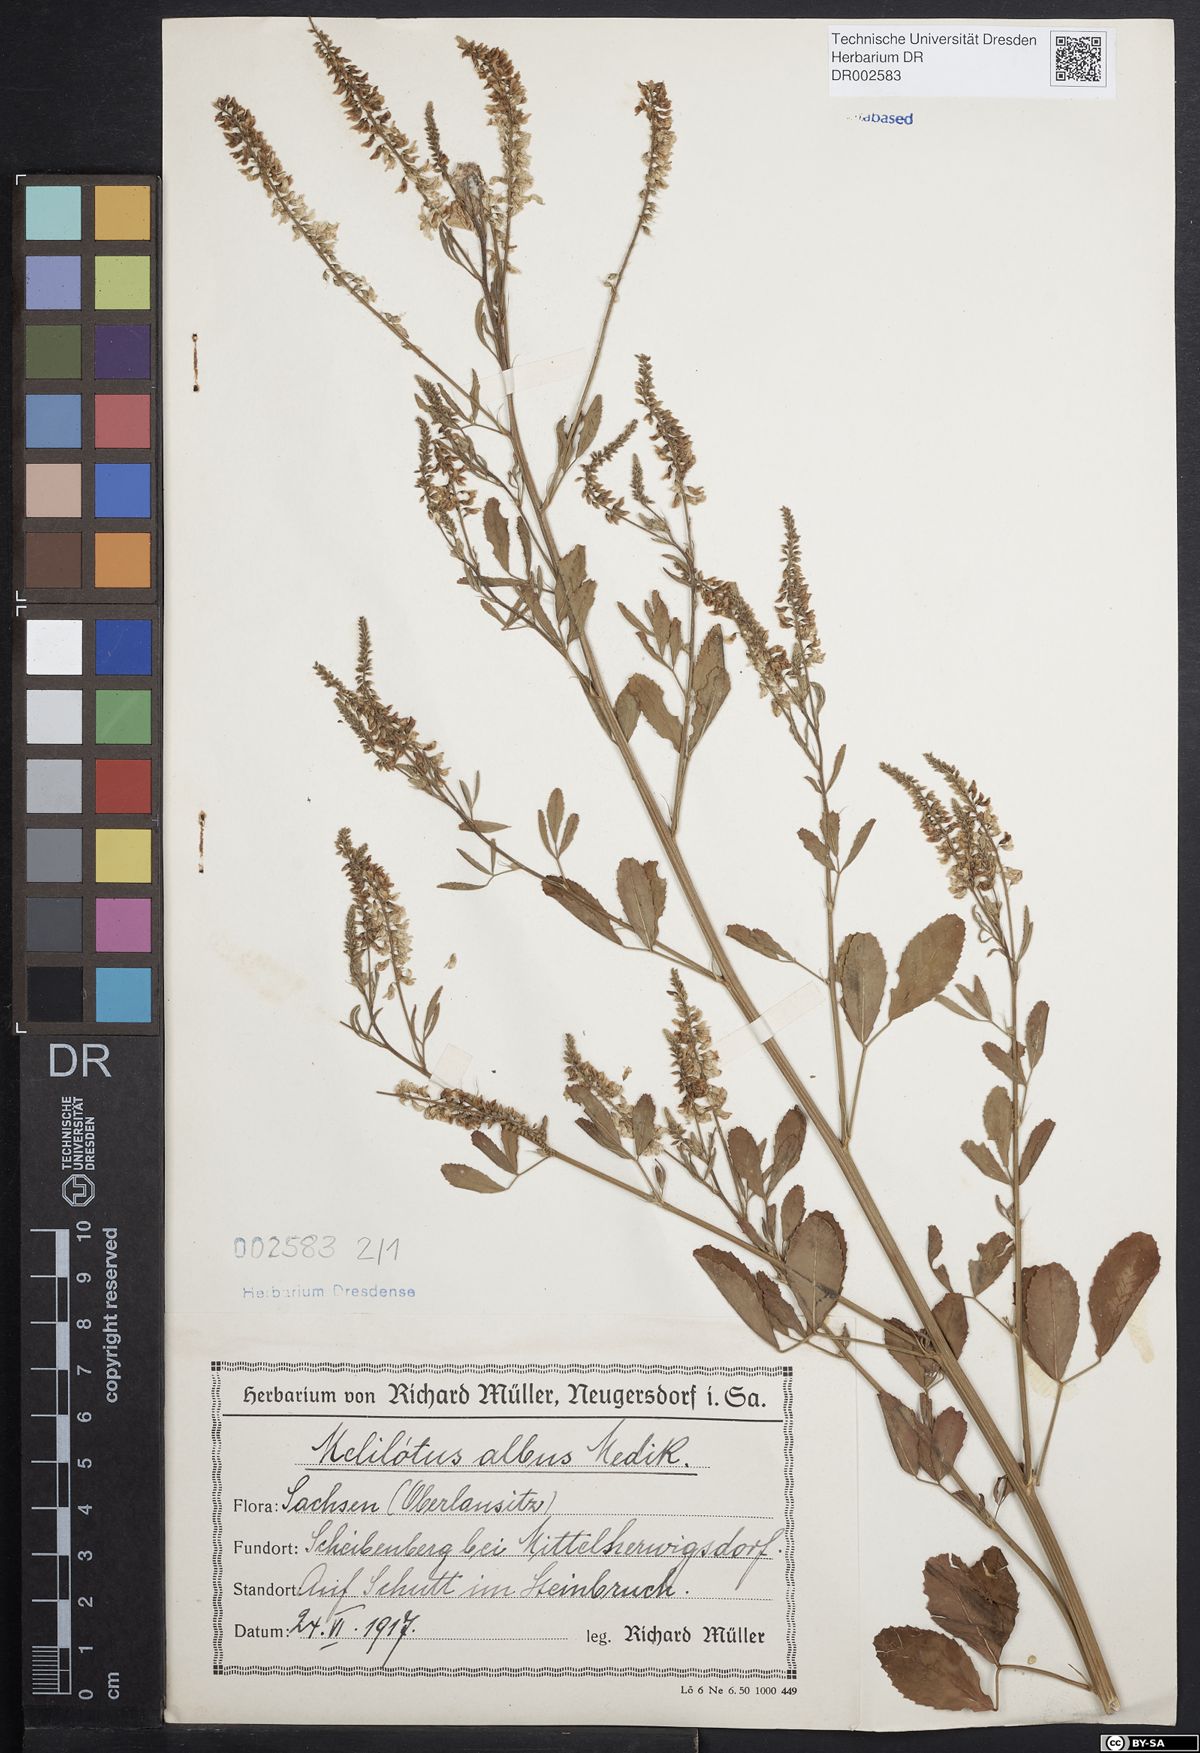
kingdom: Plantae
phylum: Tracheophyta
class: Magnoliopsida
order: Fabales
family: Fabaceae
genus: Melilotus
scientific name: Melilotus albus
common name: White melilot
